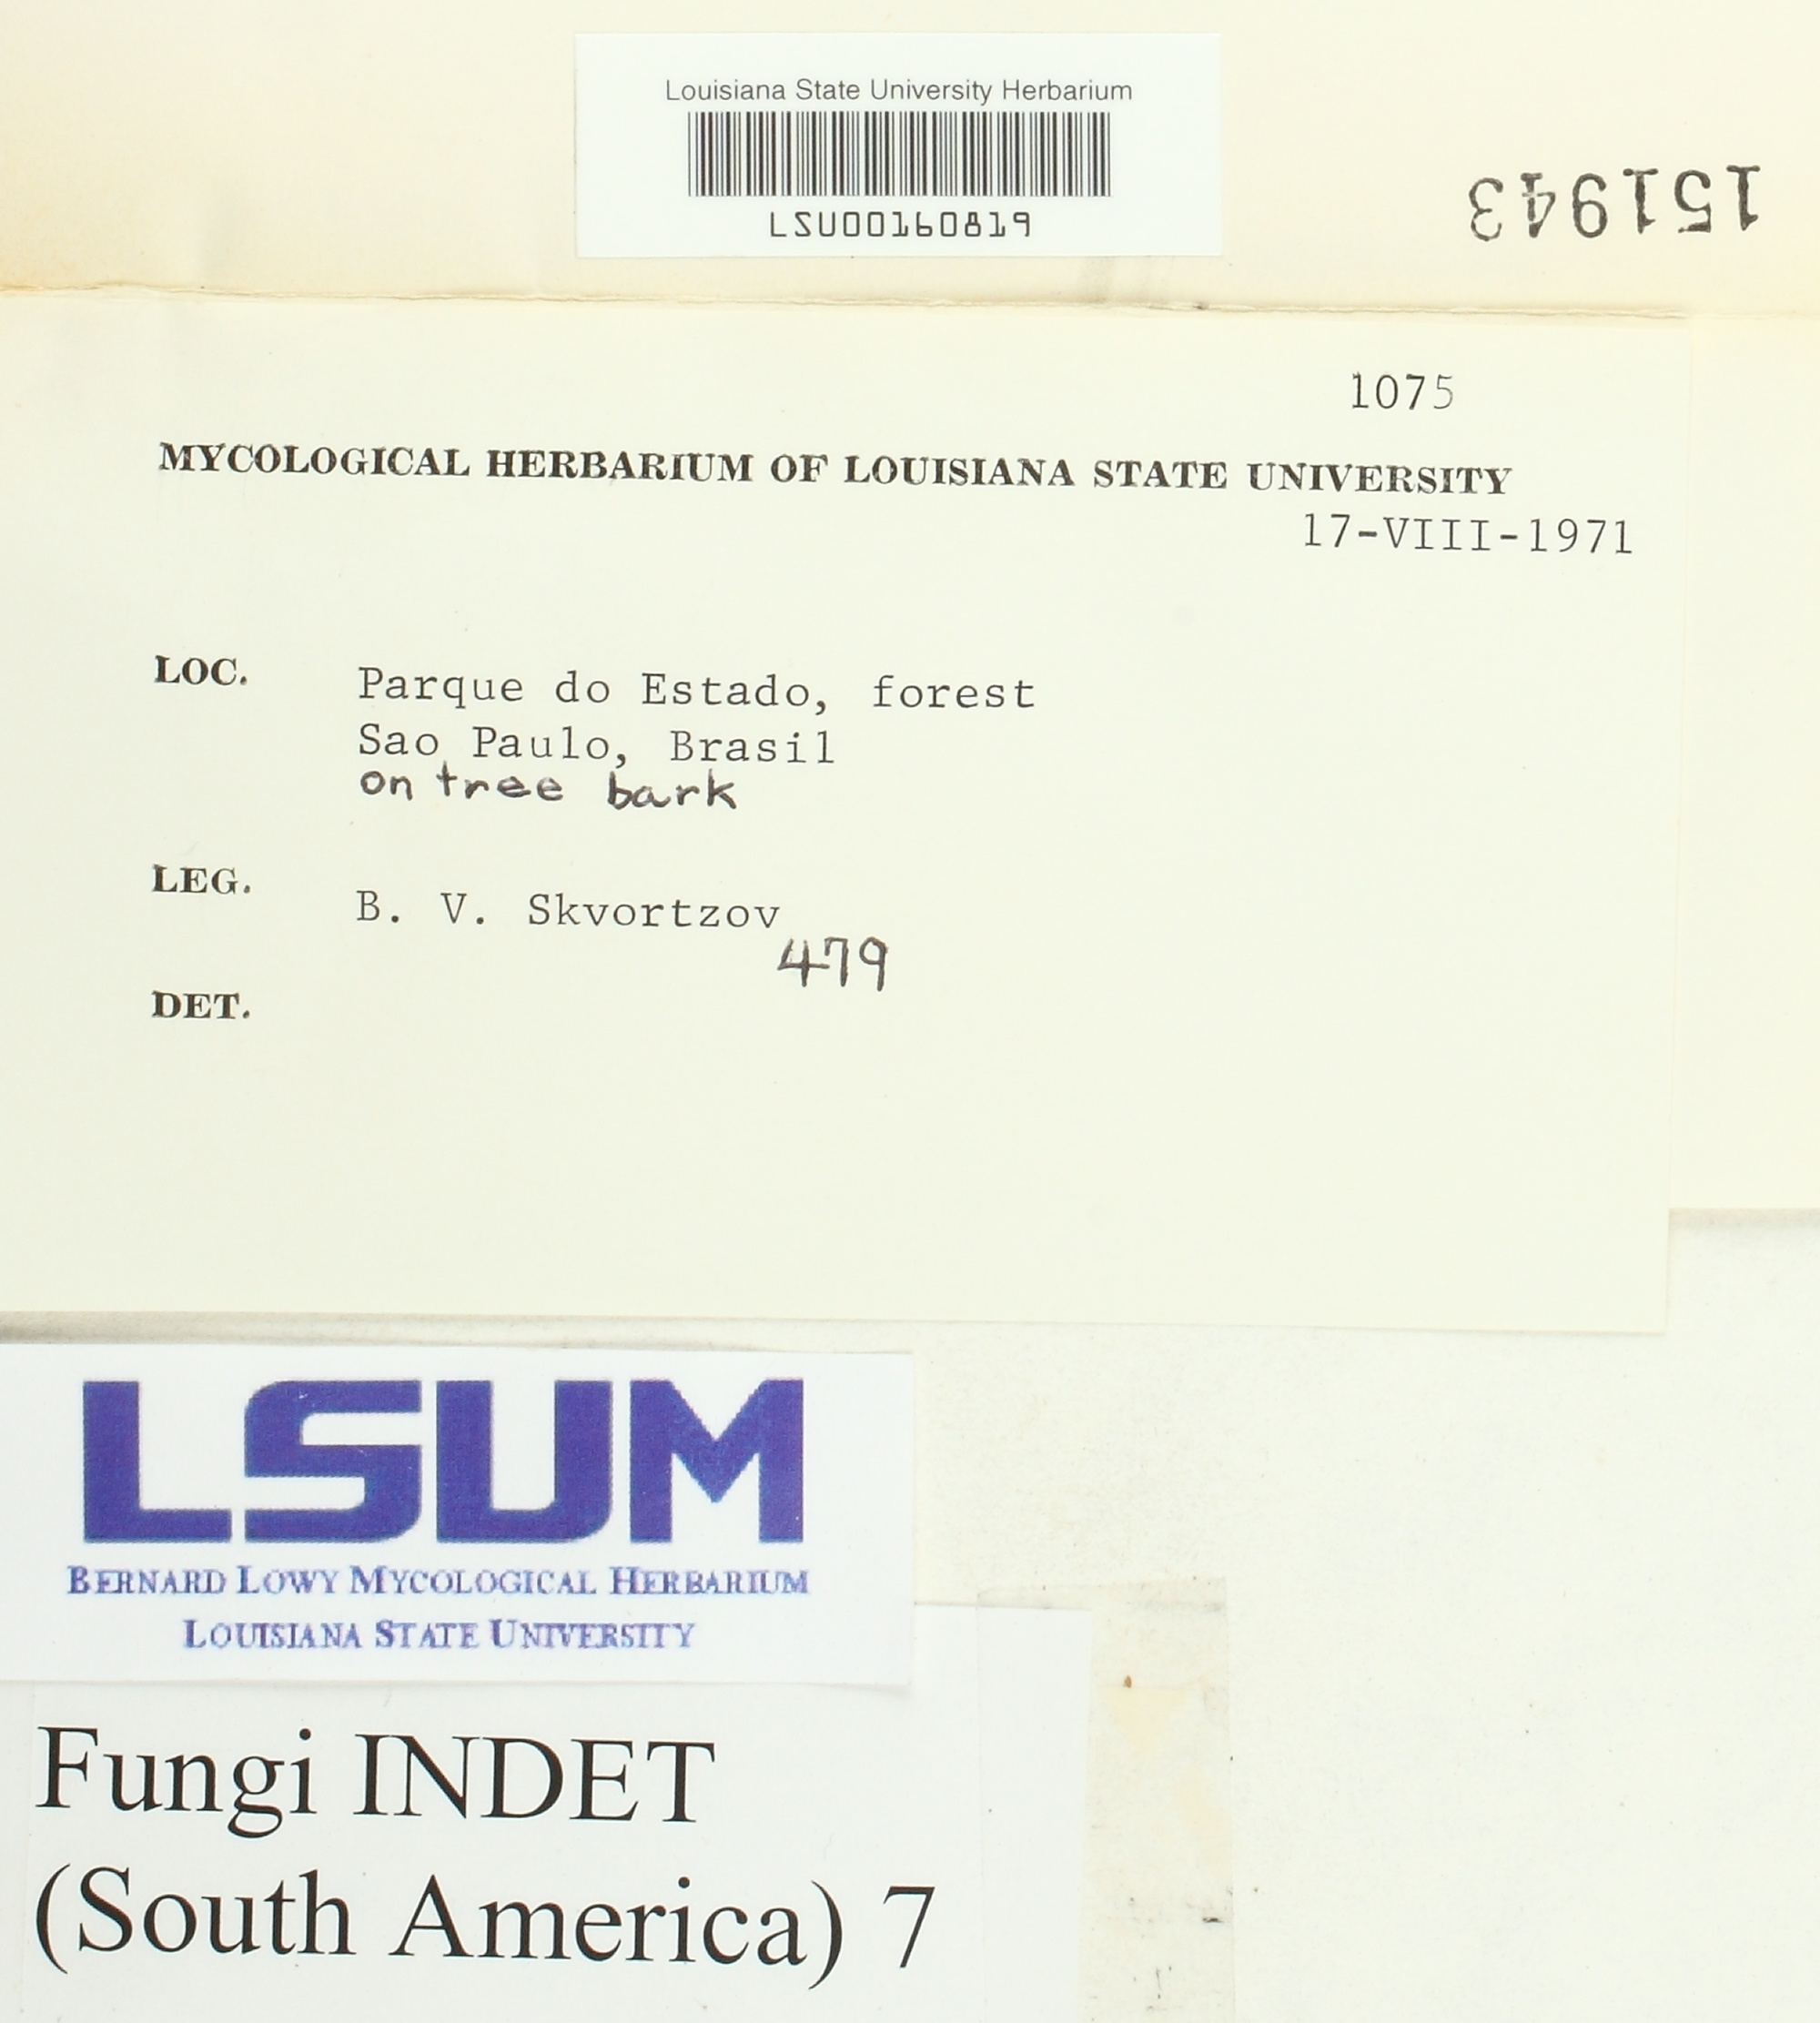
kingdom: Fungi
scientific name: Fungi
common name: Fungi
